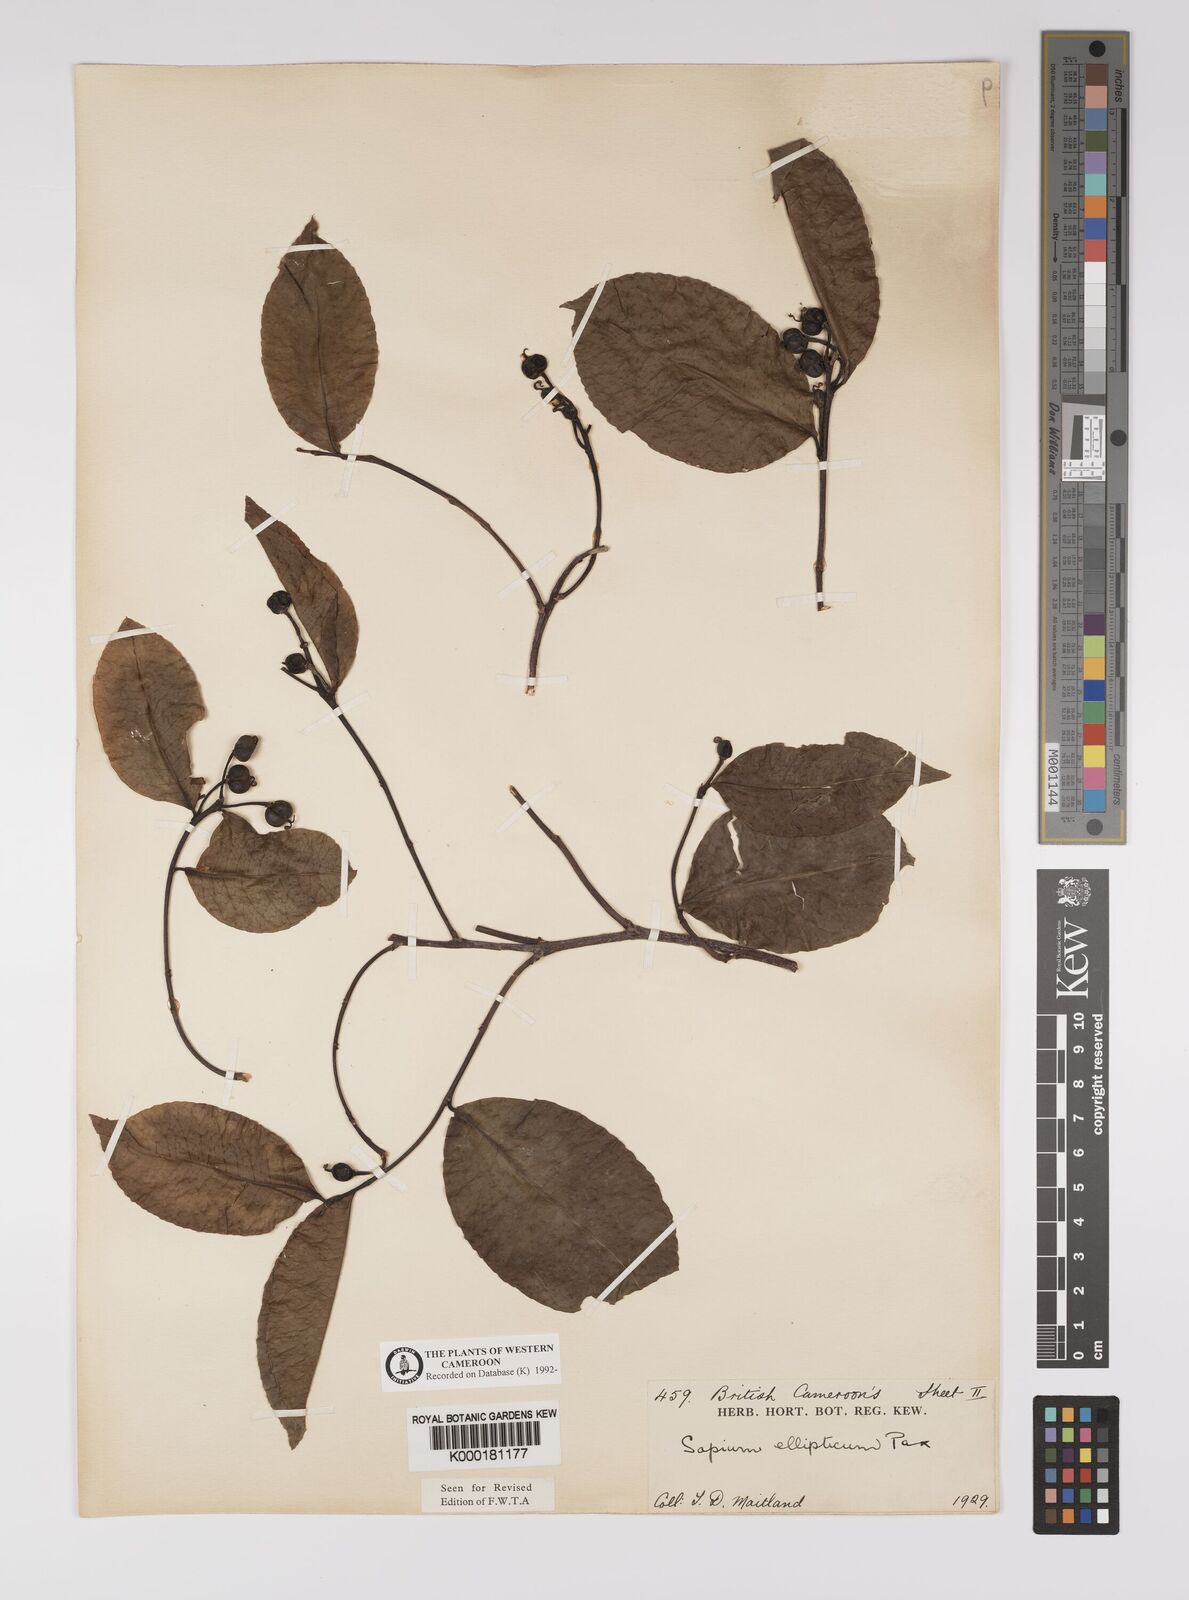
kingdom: Plantae
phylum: Tracheophyta
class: Magnoliopsida
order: Malpighiales
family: Euphorbiaceae
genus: Shirakiopsis
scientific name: Shirakiopsis elliptica
